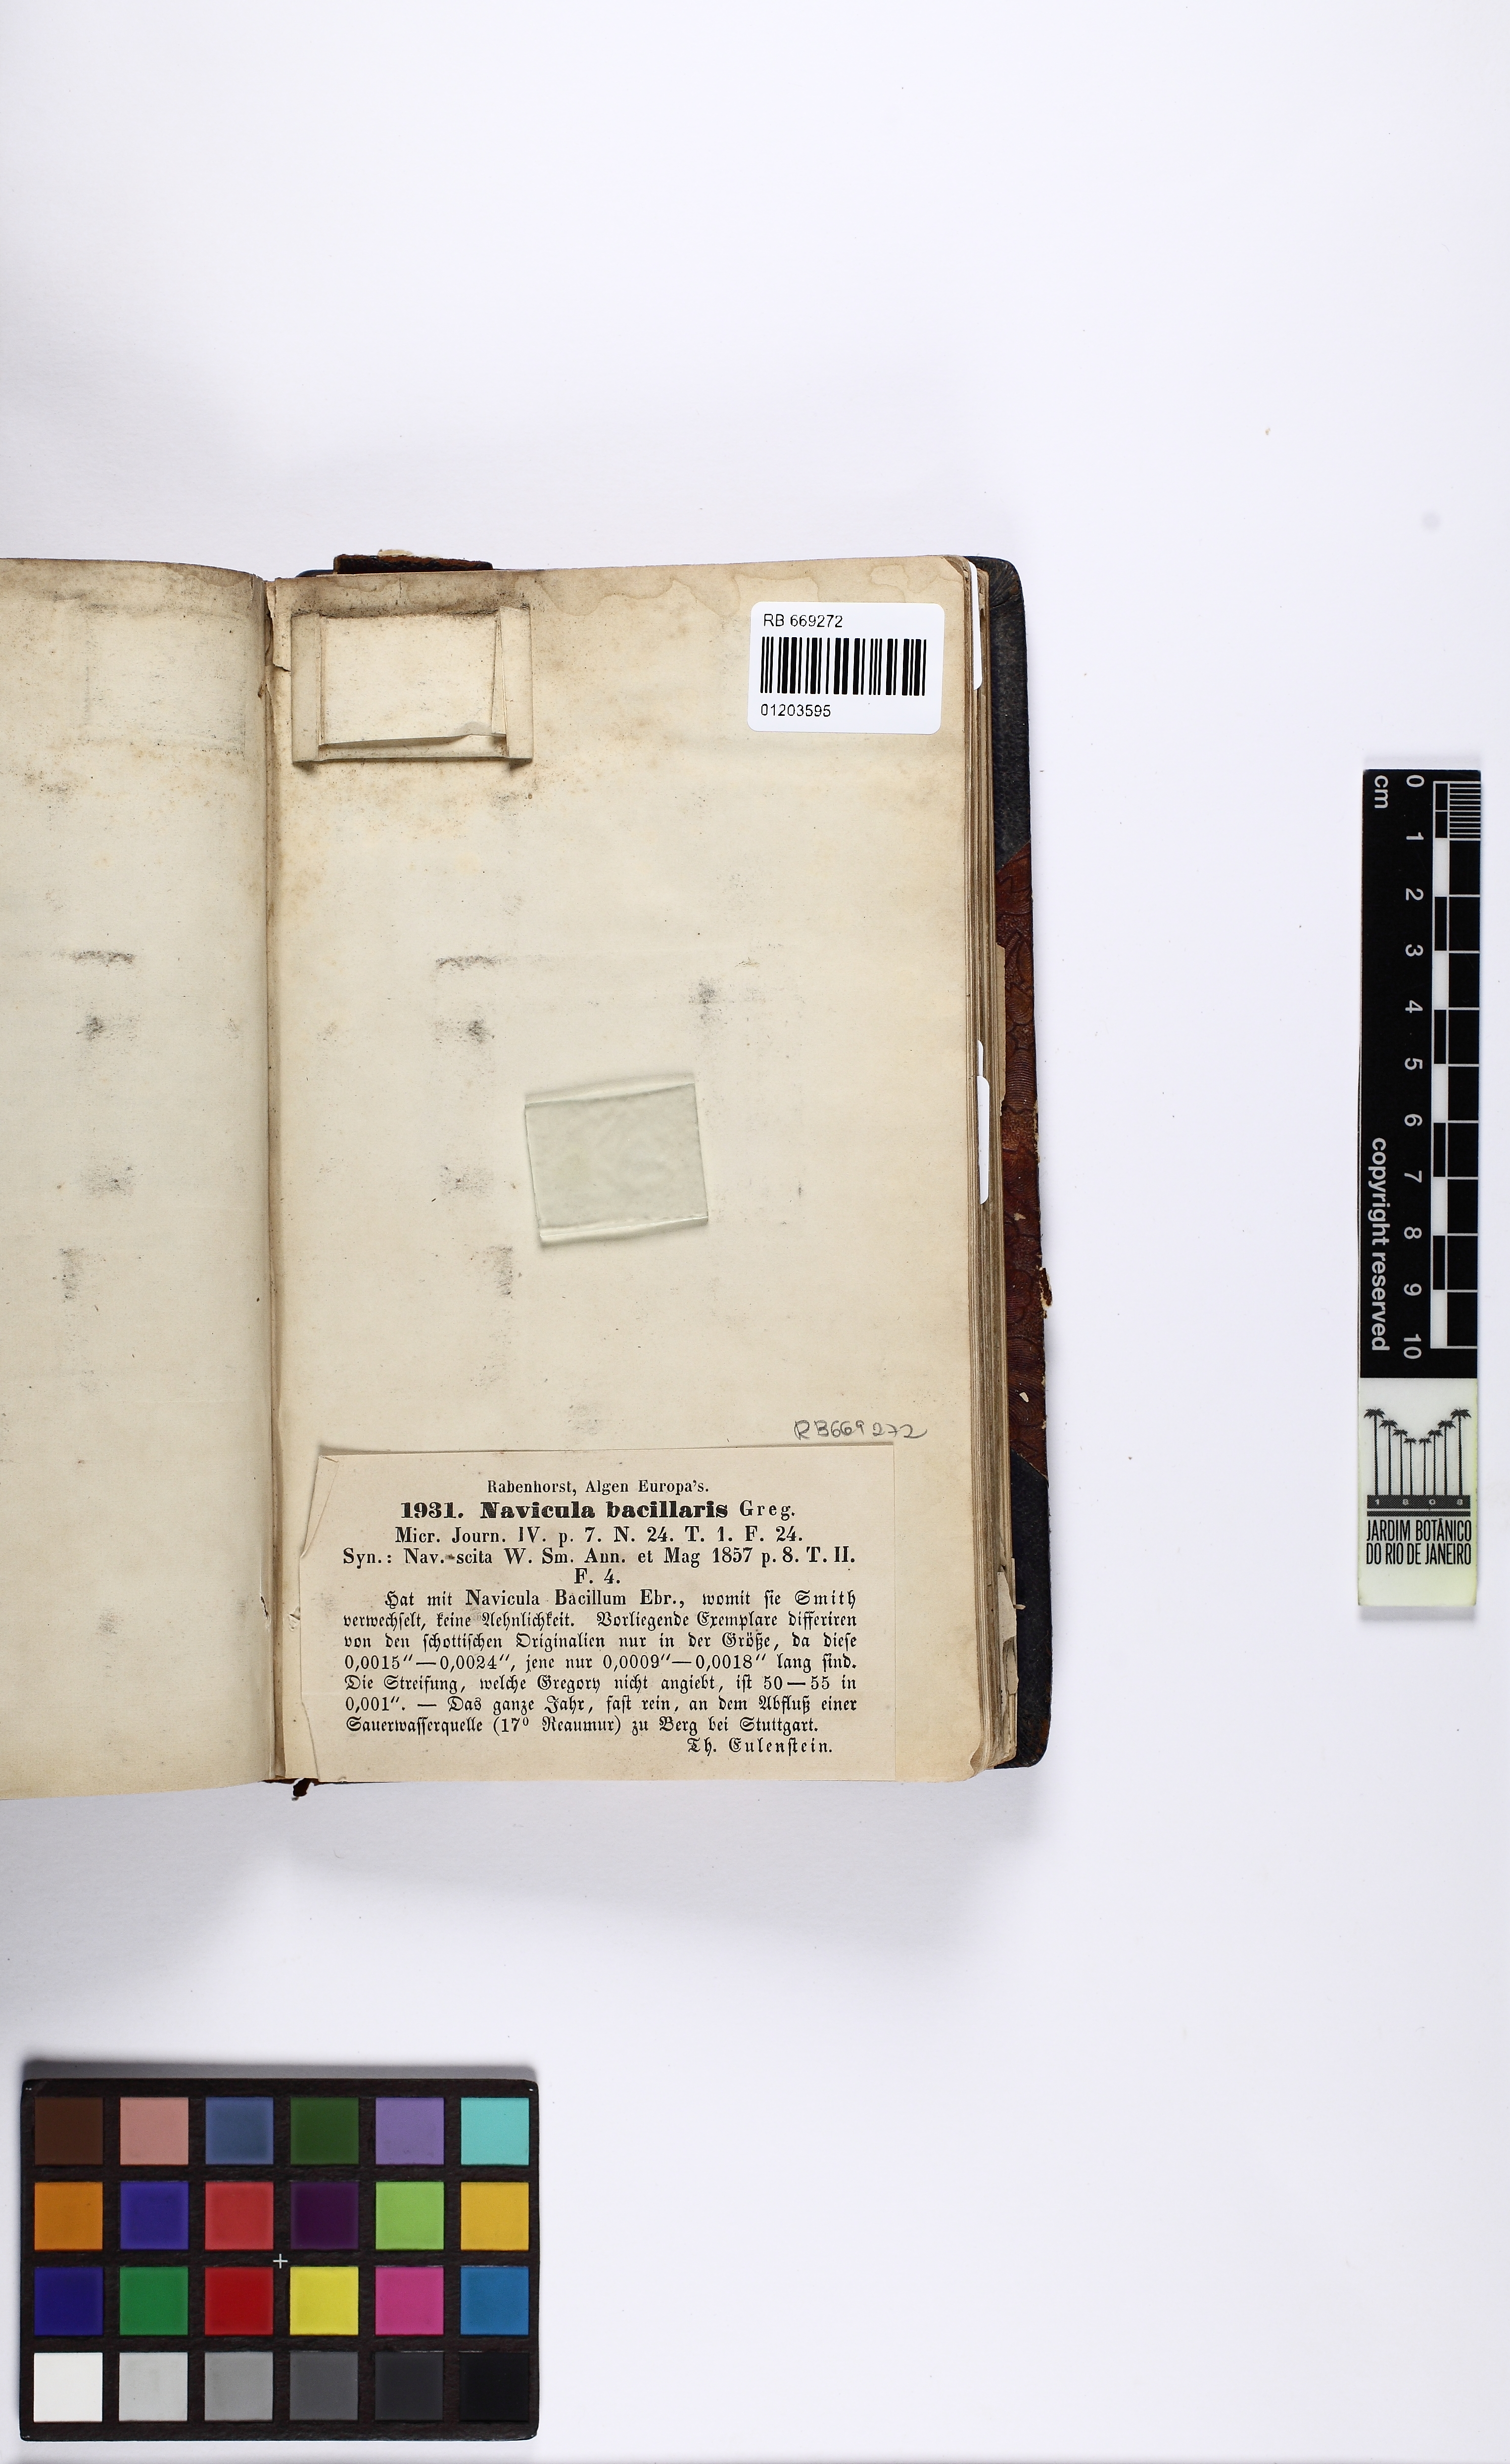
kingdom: Chromista
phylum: Ochrophyta
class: Bacillariophyceae
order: Naviculales
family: Pinnulariaceae
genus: Pinnularia
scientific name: Pinnularia bacillaris
